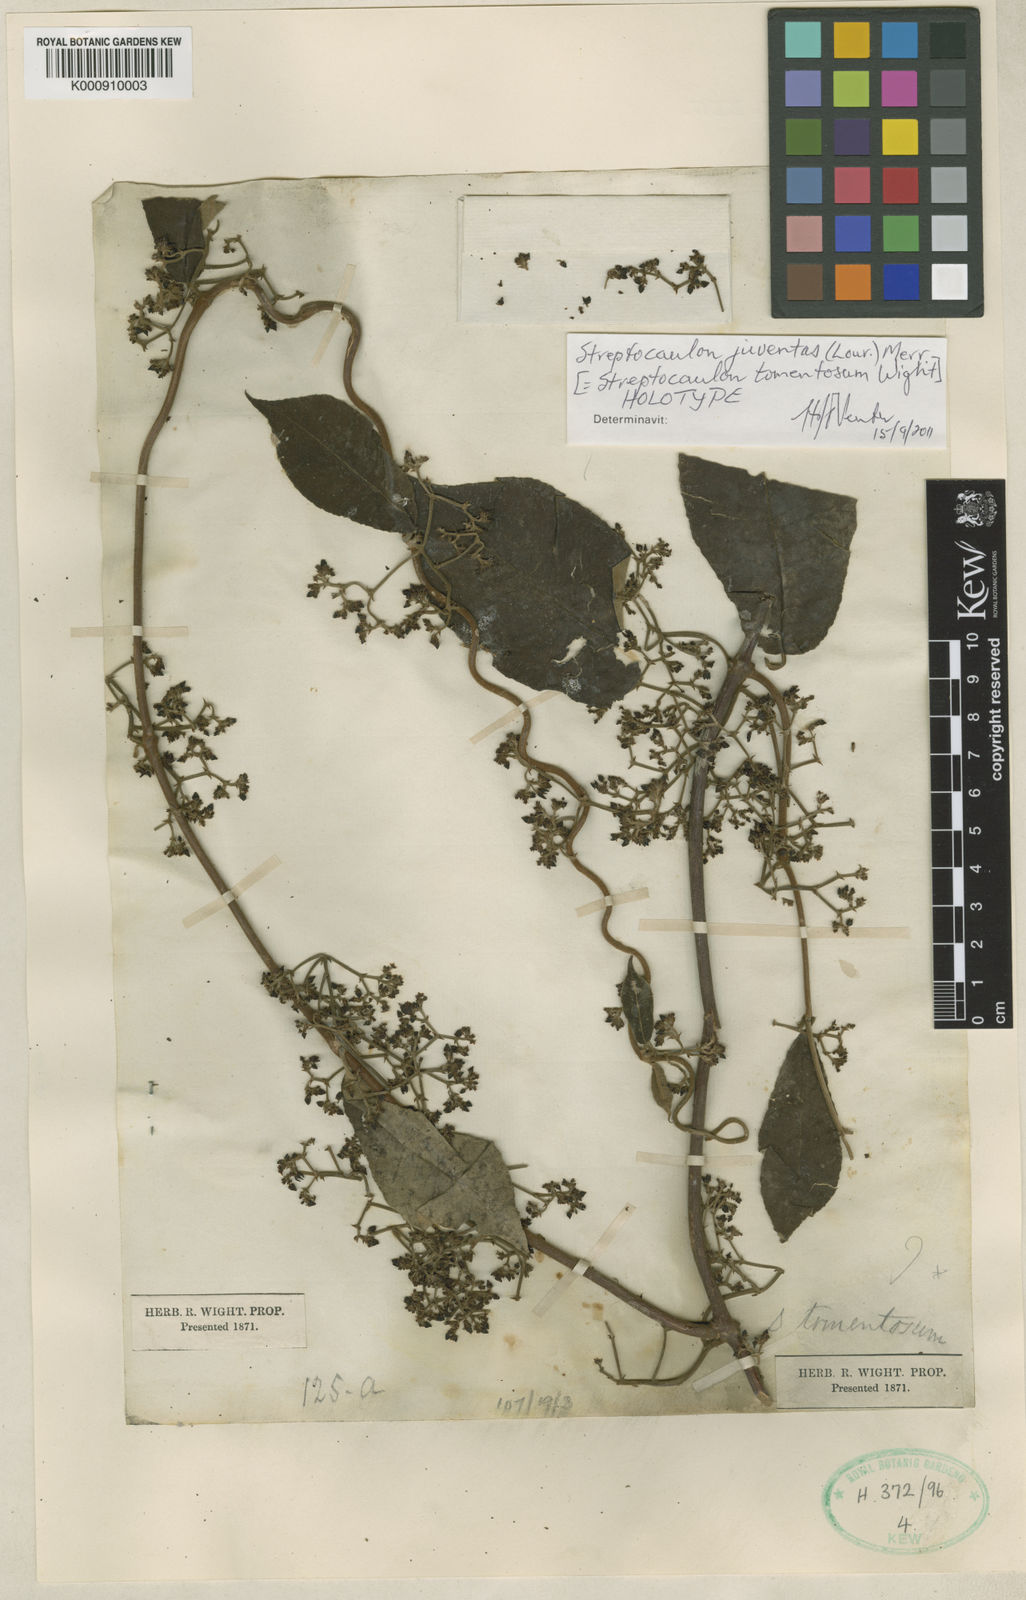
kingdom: Plantae
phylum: Tracheophyta
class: Magnoliopsida
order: Gentianales
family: Apocynaceae
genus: Streptocaulon
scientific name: Streptocaulon juventas
